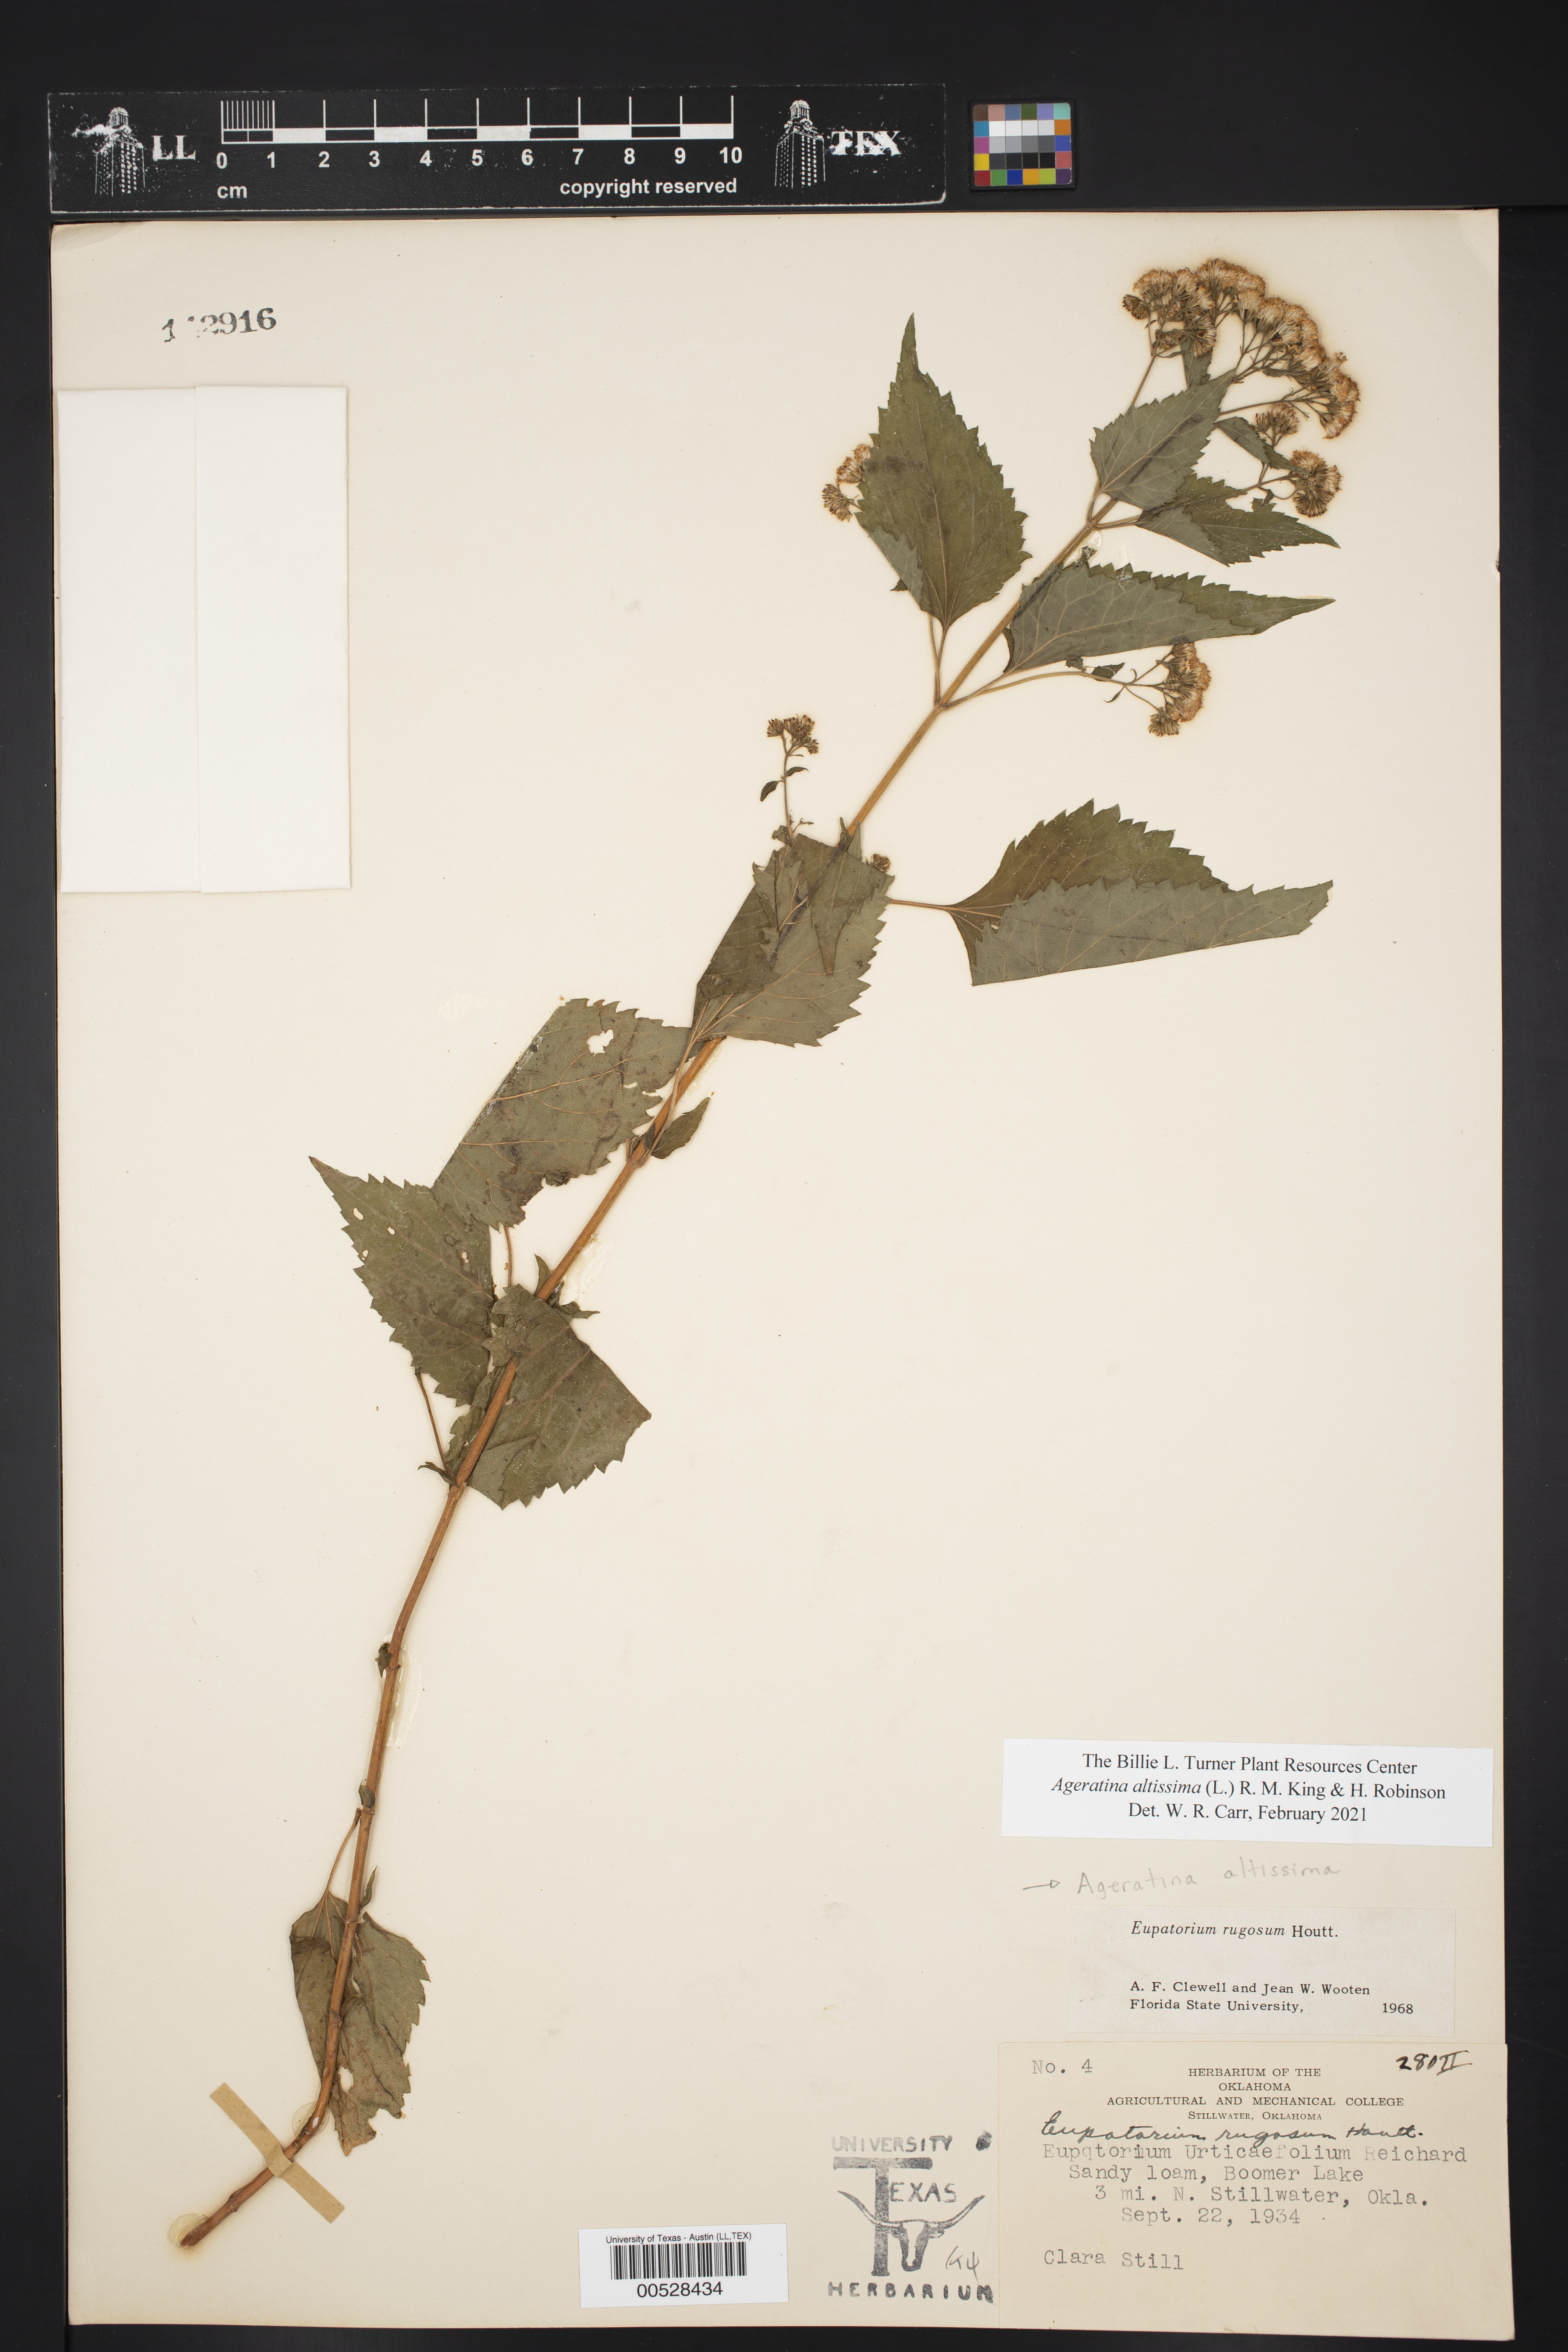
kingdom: Plantae
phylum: Tracheophyta
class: Magnoliopsida
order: Asterales
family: Asteraceae
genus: Ageratina
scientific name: Ageratina altissima
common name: White snakeroot
